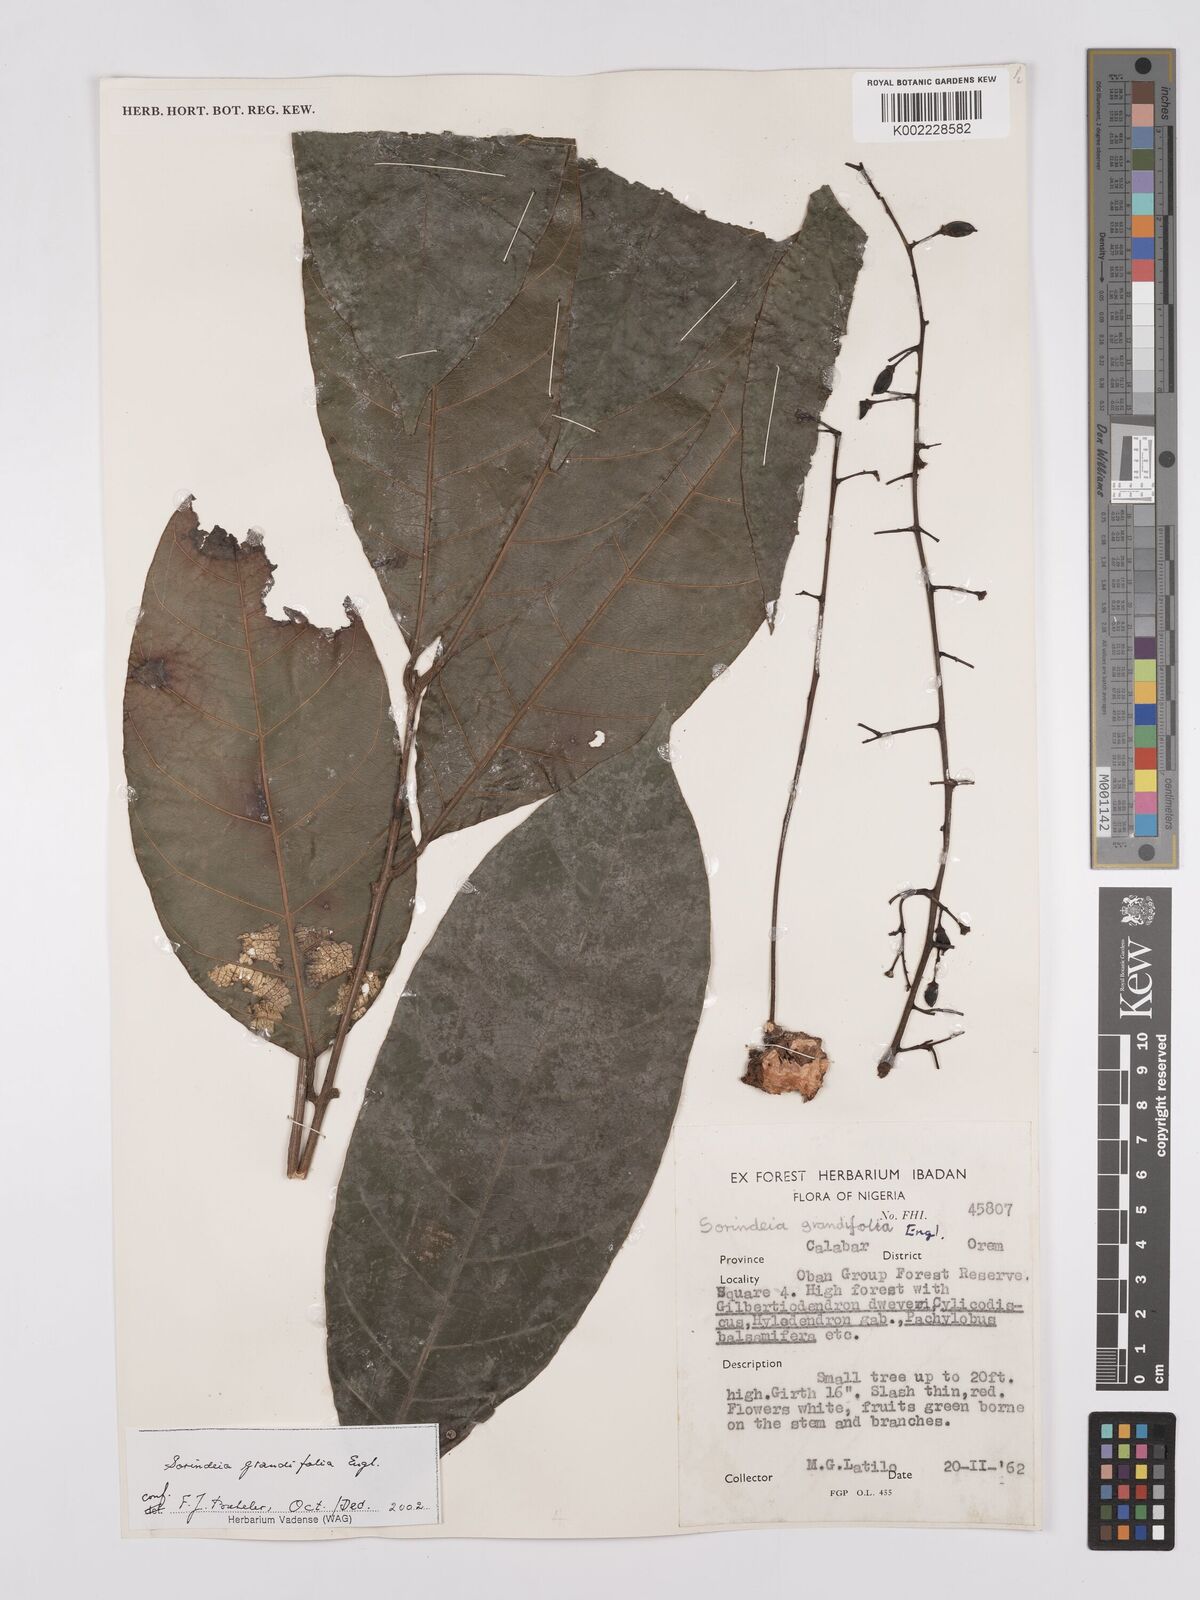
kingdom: Plantae
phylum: Tracheophyta
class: Magnoliopsida
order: Sapindales
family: Anacardiaceae
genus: Sorindeia
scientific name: Sorindeia grandifolia
